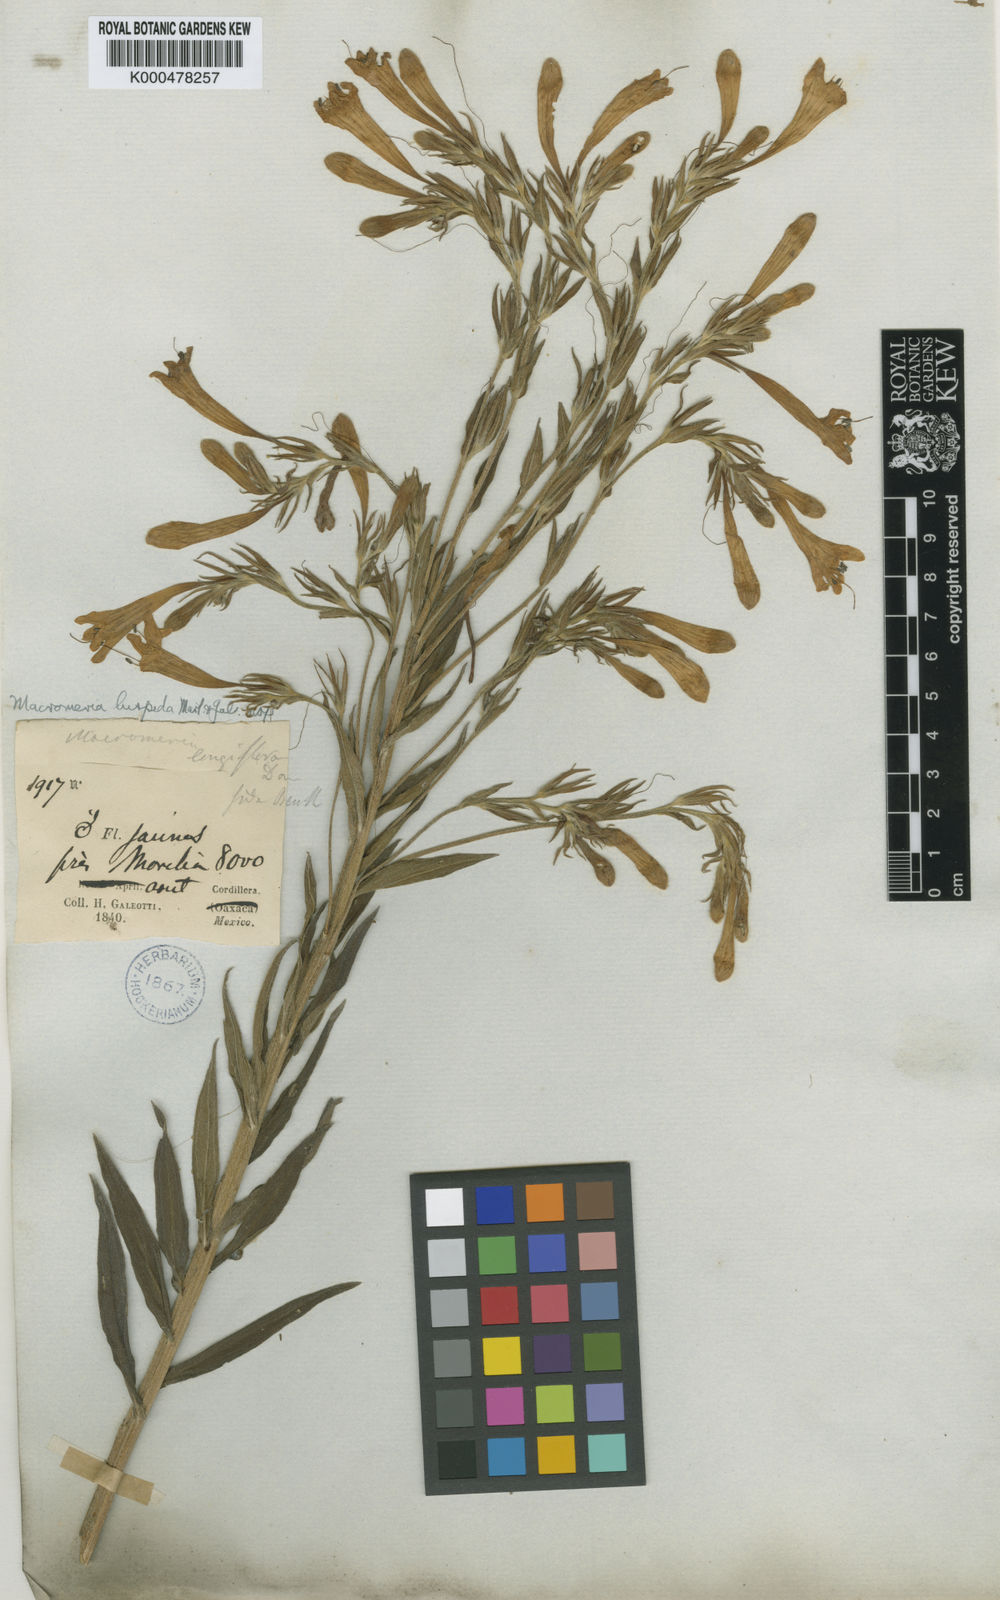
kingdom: Animalia
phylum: Arthropoda
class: Insecta
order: Hymenoptera
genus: Macromeria
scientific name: Macromeria
